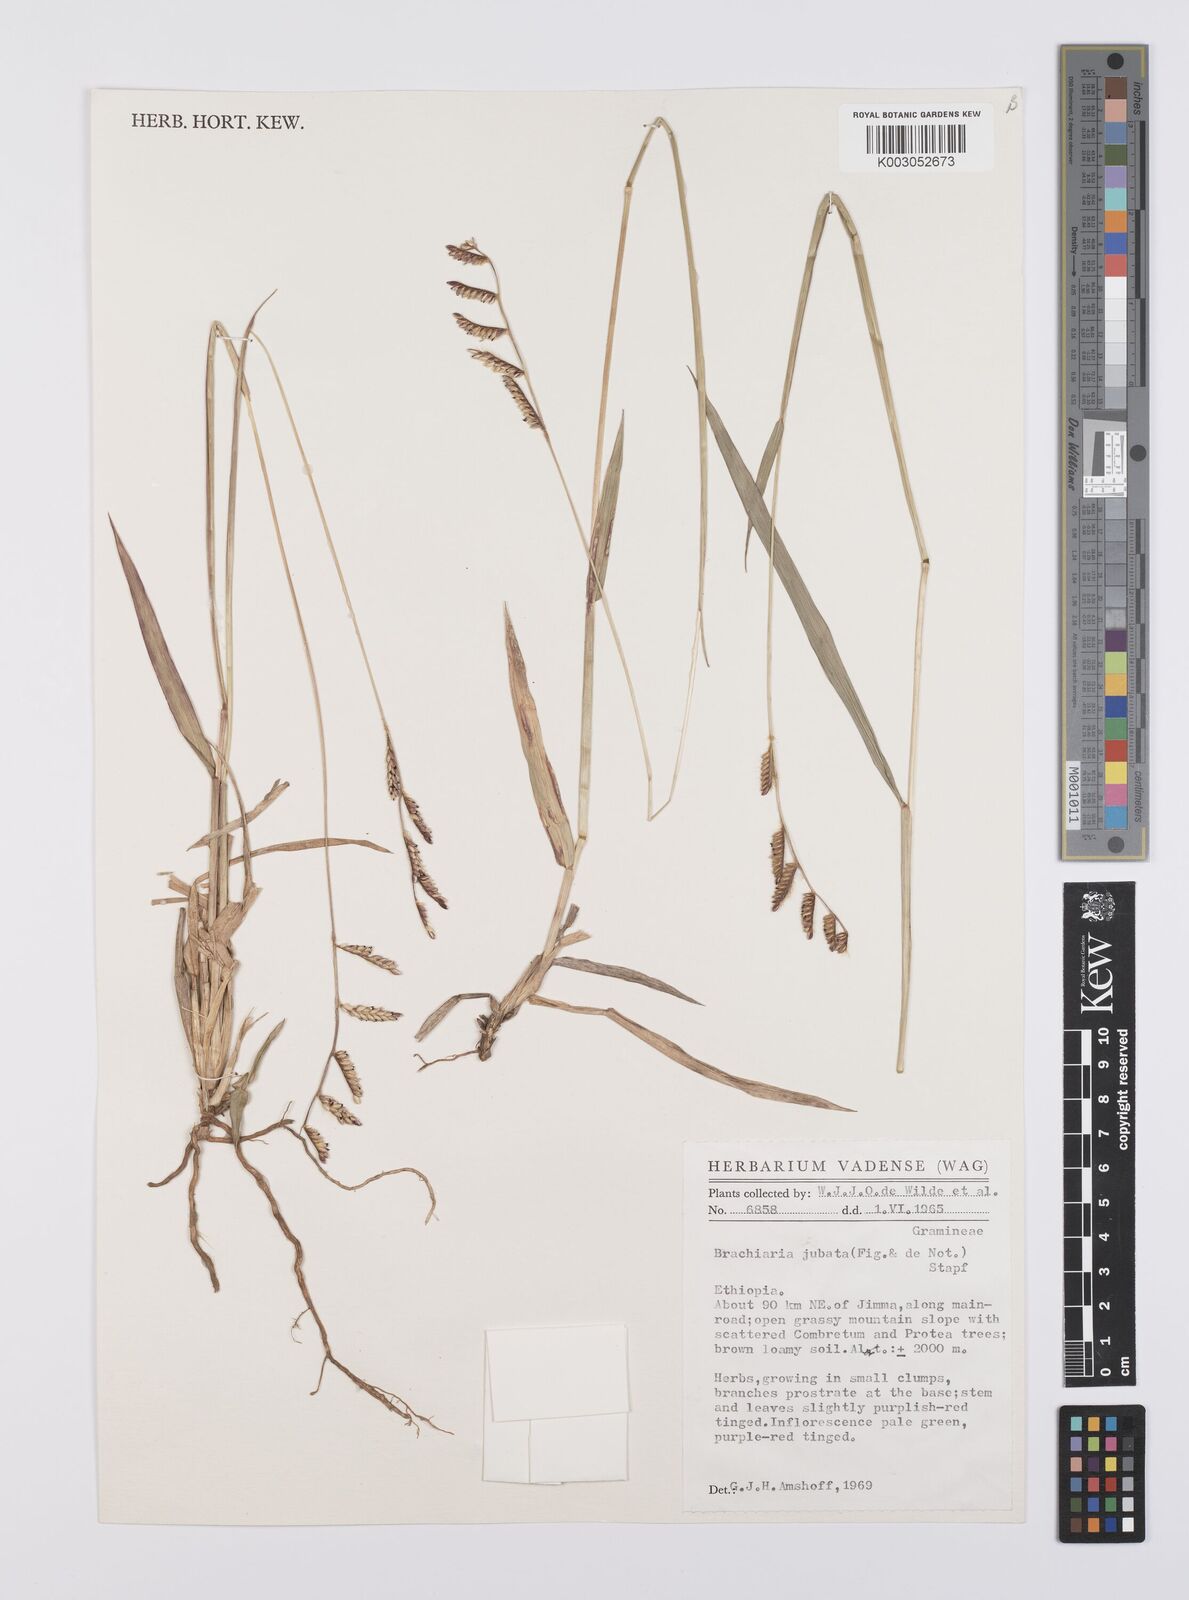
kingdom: Plantae
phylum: Tracheophyta
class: Liliopsida
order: Poales
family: Poaceae
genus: Urochloa
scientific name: Urochloa jubata
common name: Buffalograss
